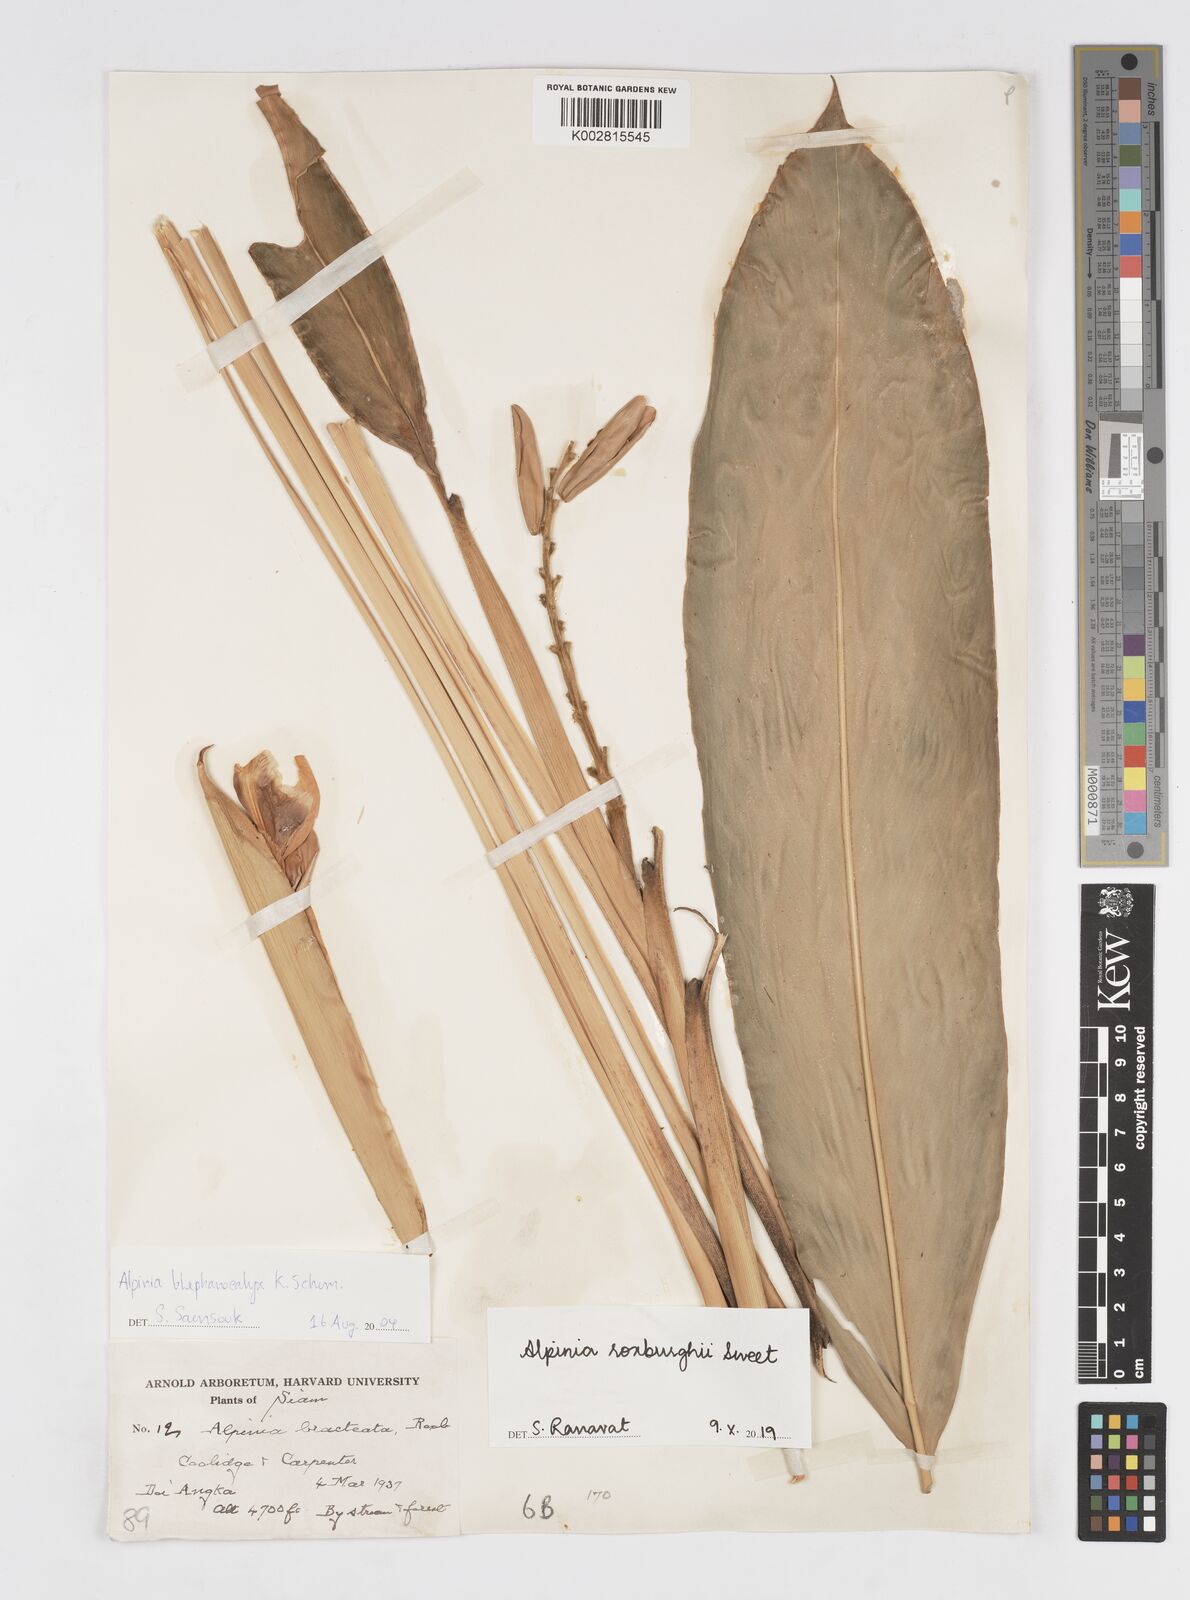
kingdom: Plantae
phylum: Tracheophyta
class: Liliopsida
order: Zingiberales
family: Zingiberaceae
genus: Alpinia
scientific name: Alpinia roxburghii
